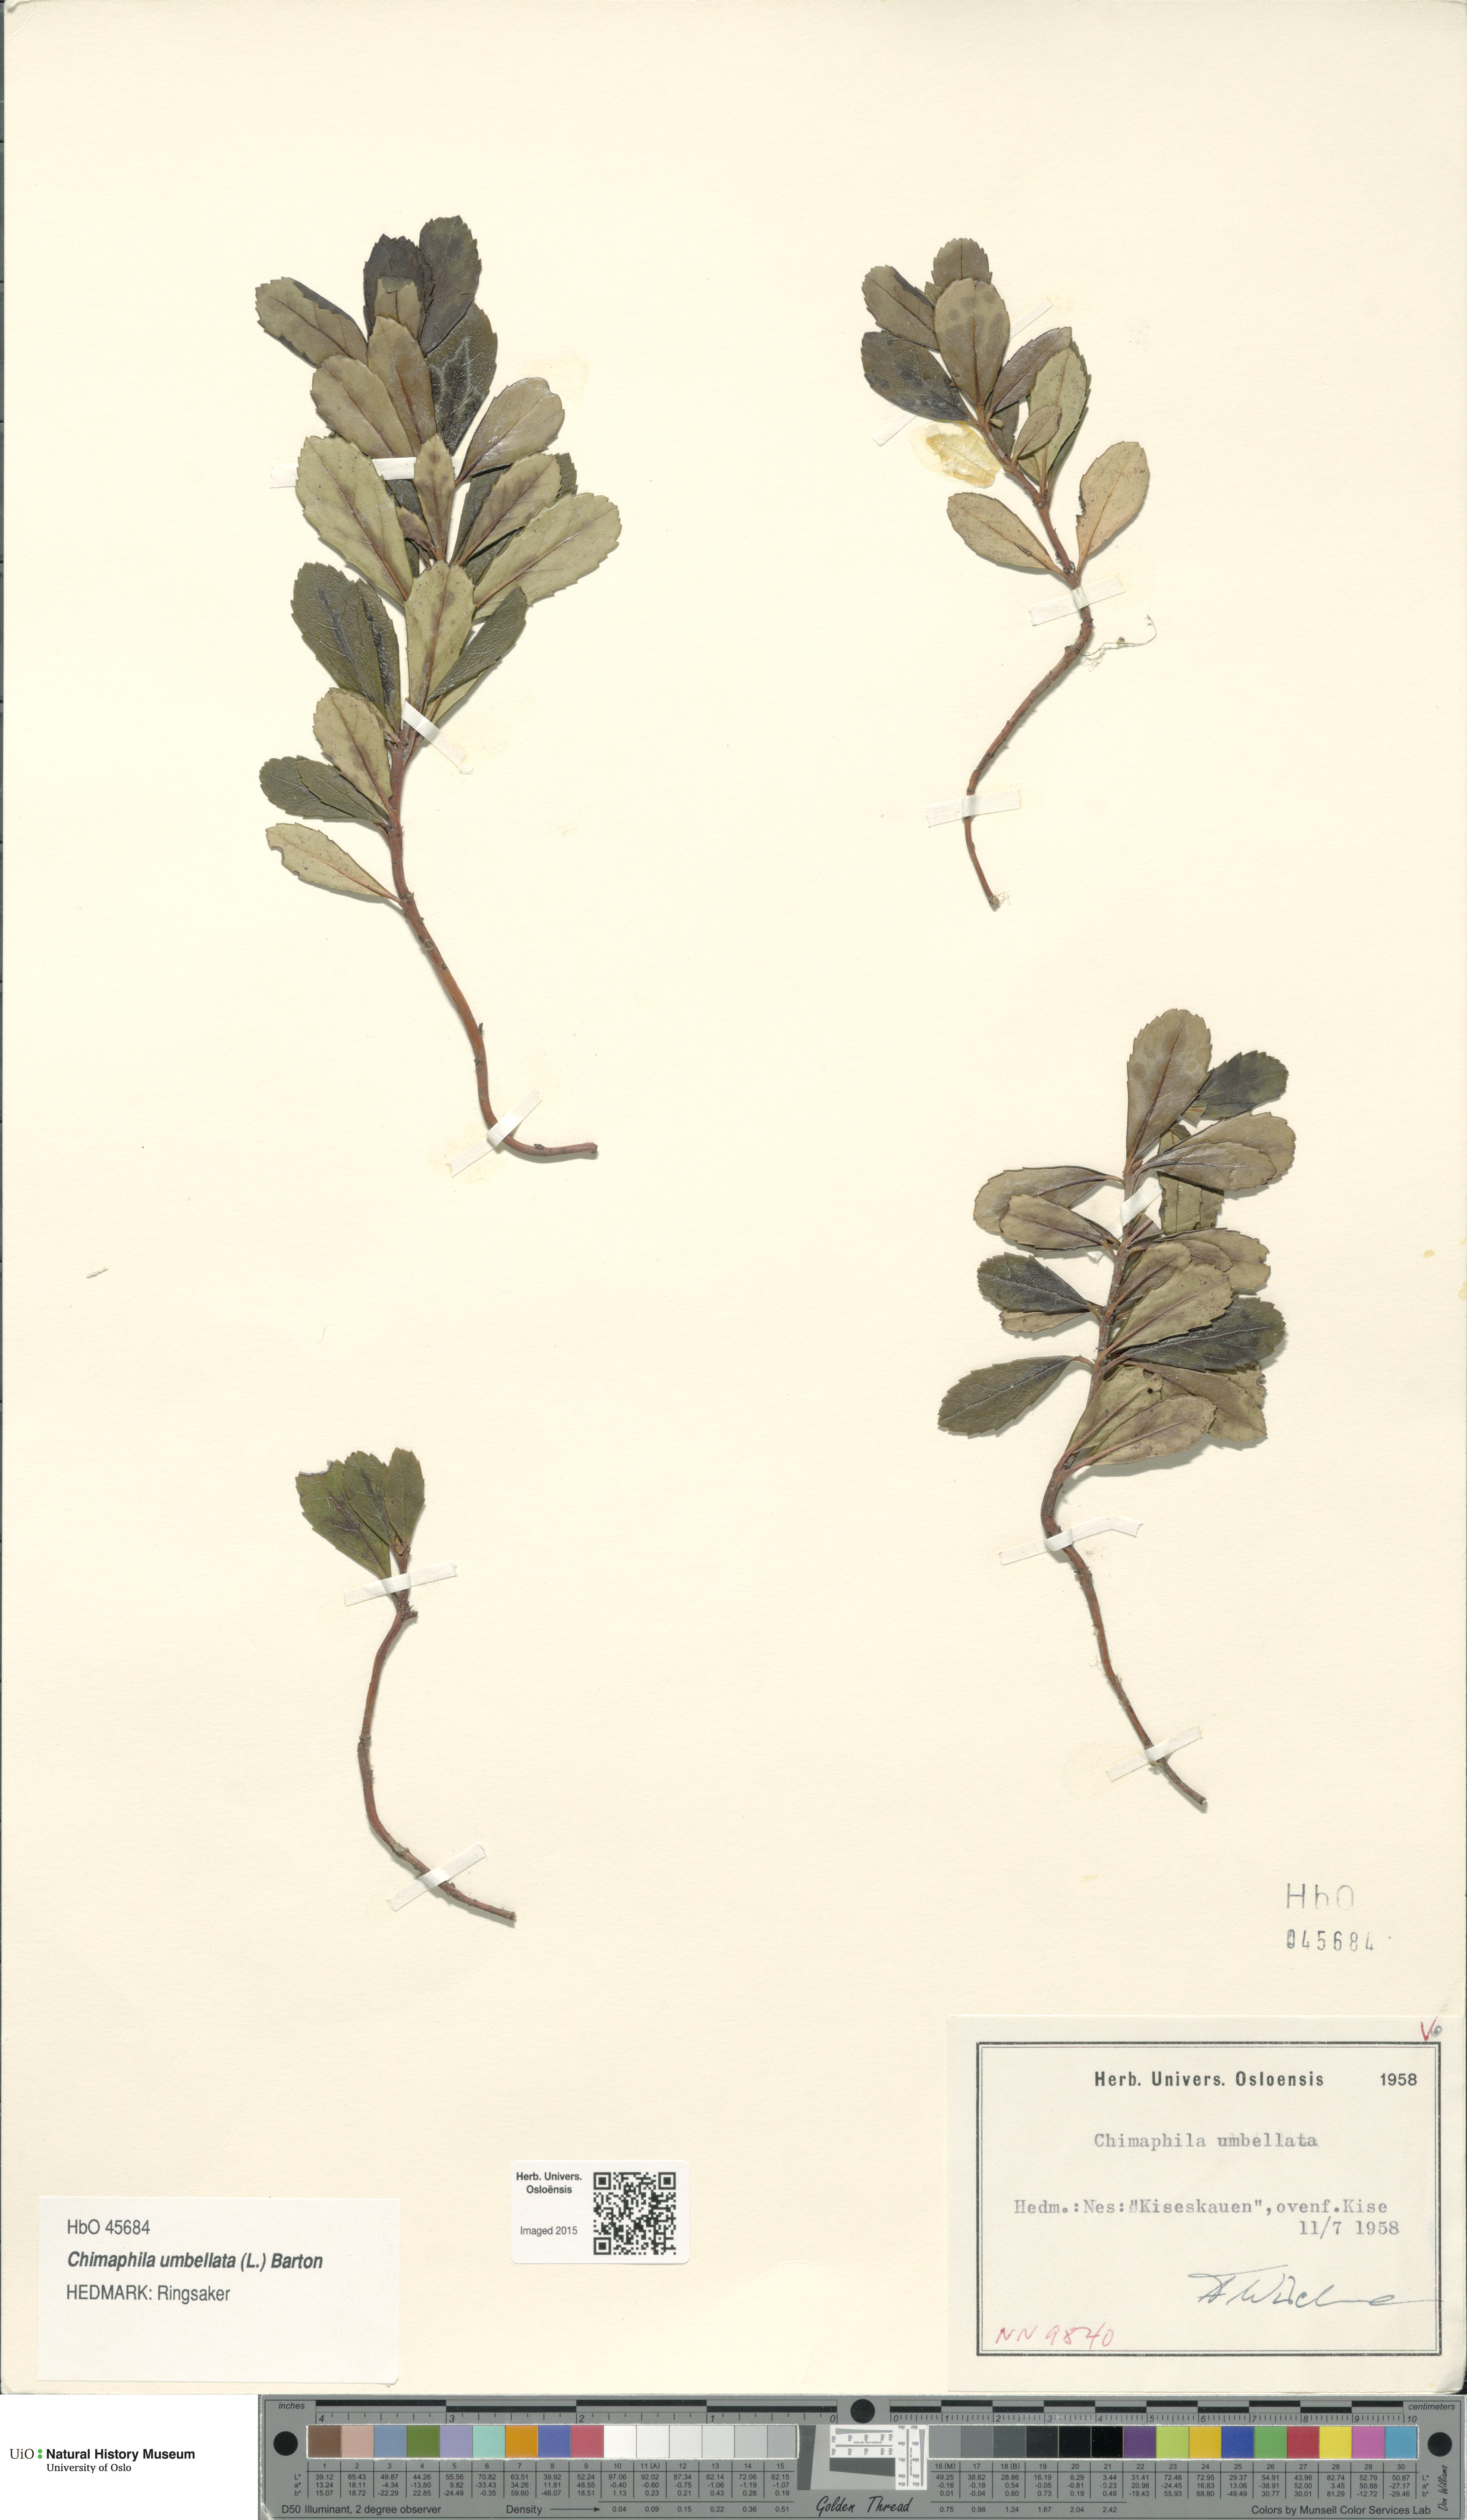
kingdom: Plantae
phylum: Tracheophyta
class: Magnoliopsida
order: Ericales
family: Ericaceae
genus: Chimaphila
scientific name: Chimaphila umbellata
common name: Pipsissewa
